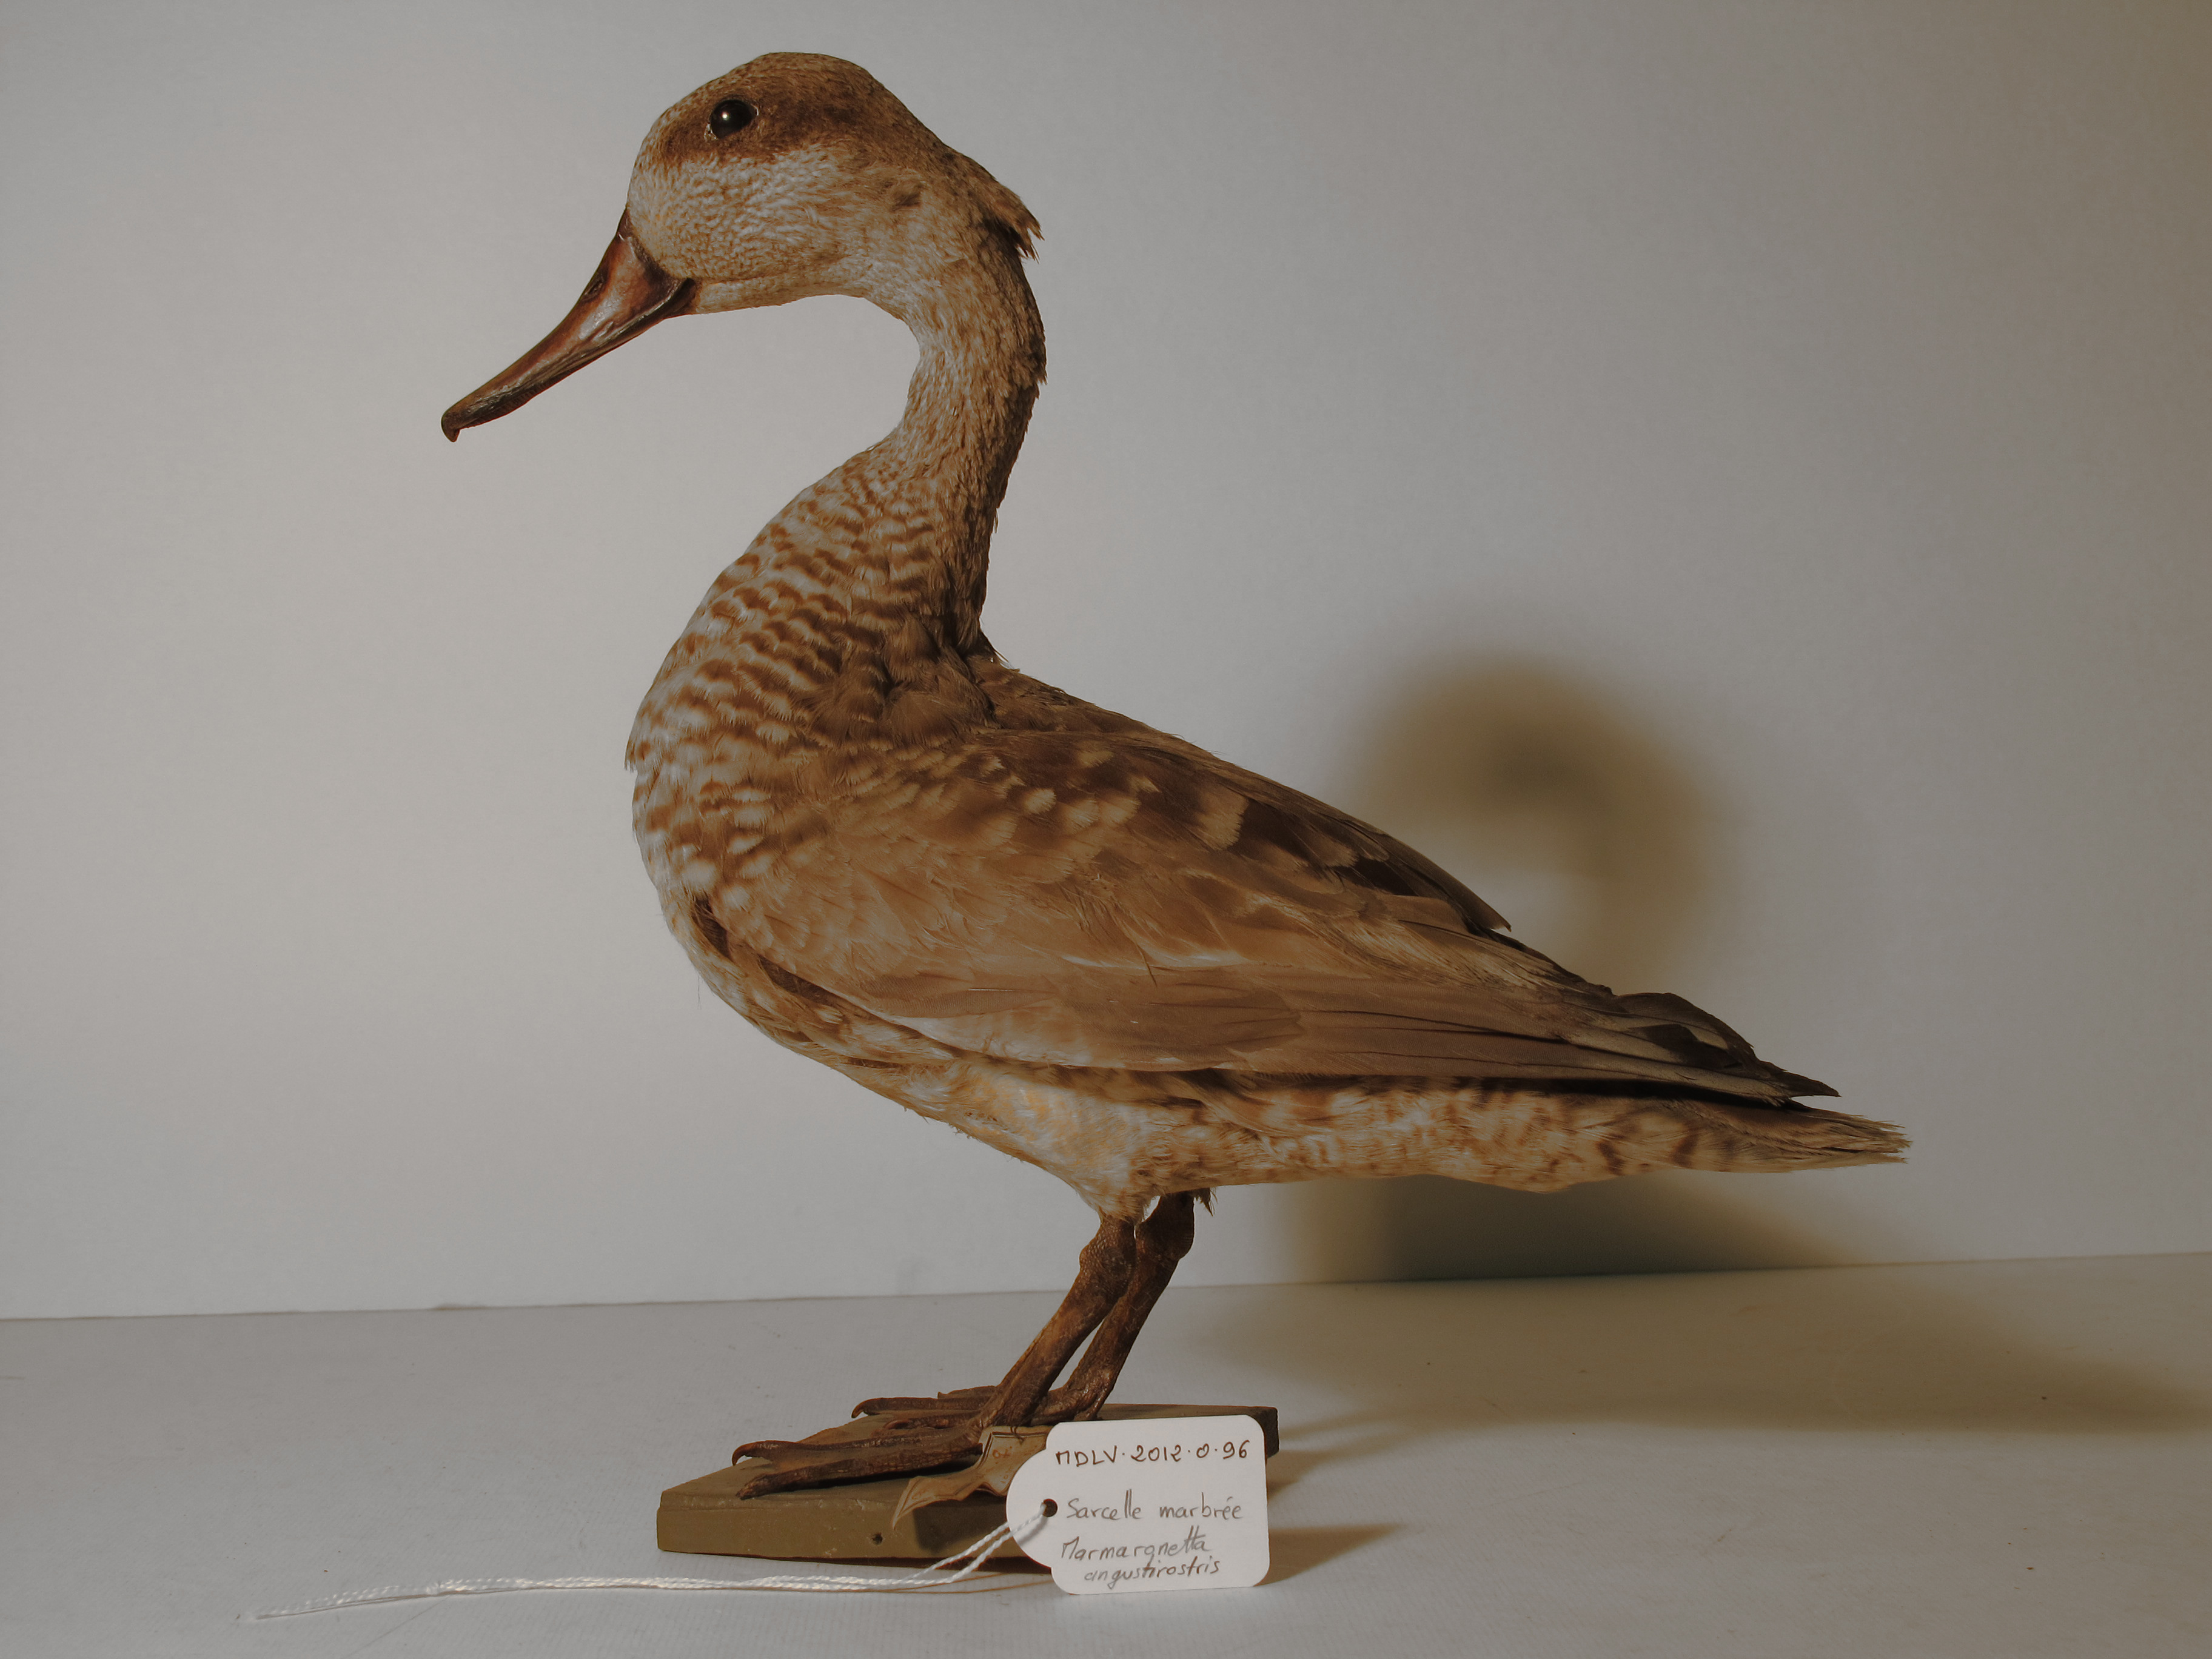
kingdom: Animalia
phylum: Chordata
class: Aves
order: Anseriformes
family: Anatidae
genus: Marmaronetta
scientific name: Marmaronetta angustirostris
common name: Marbled Teal
